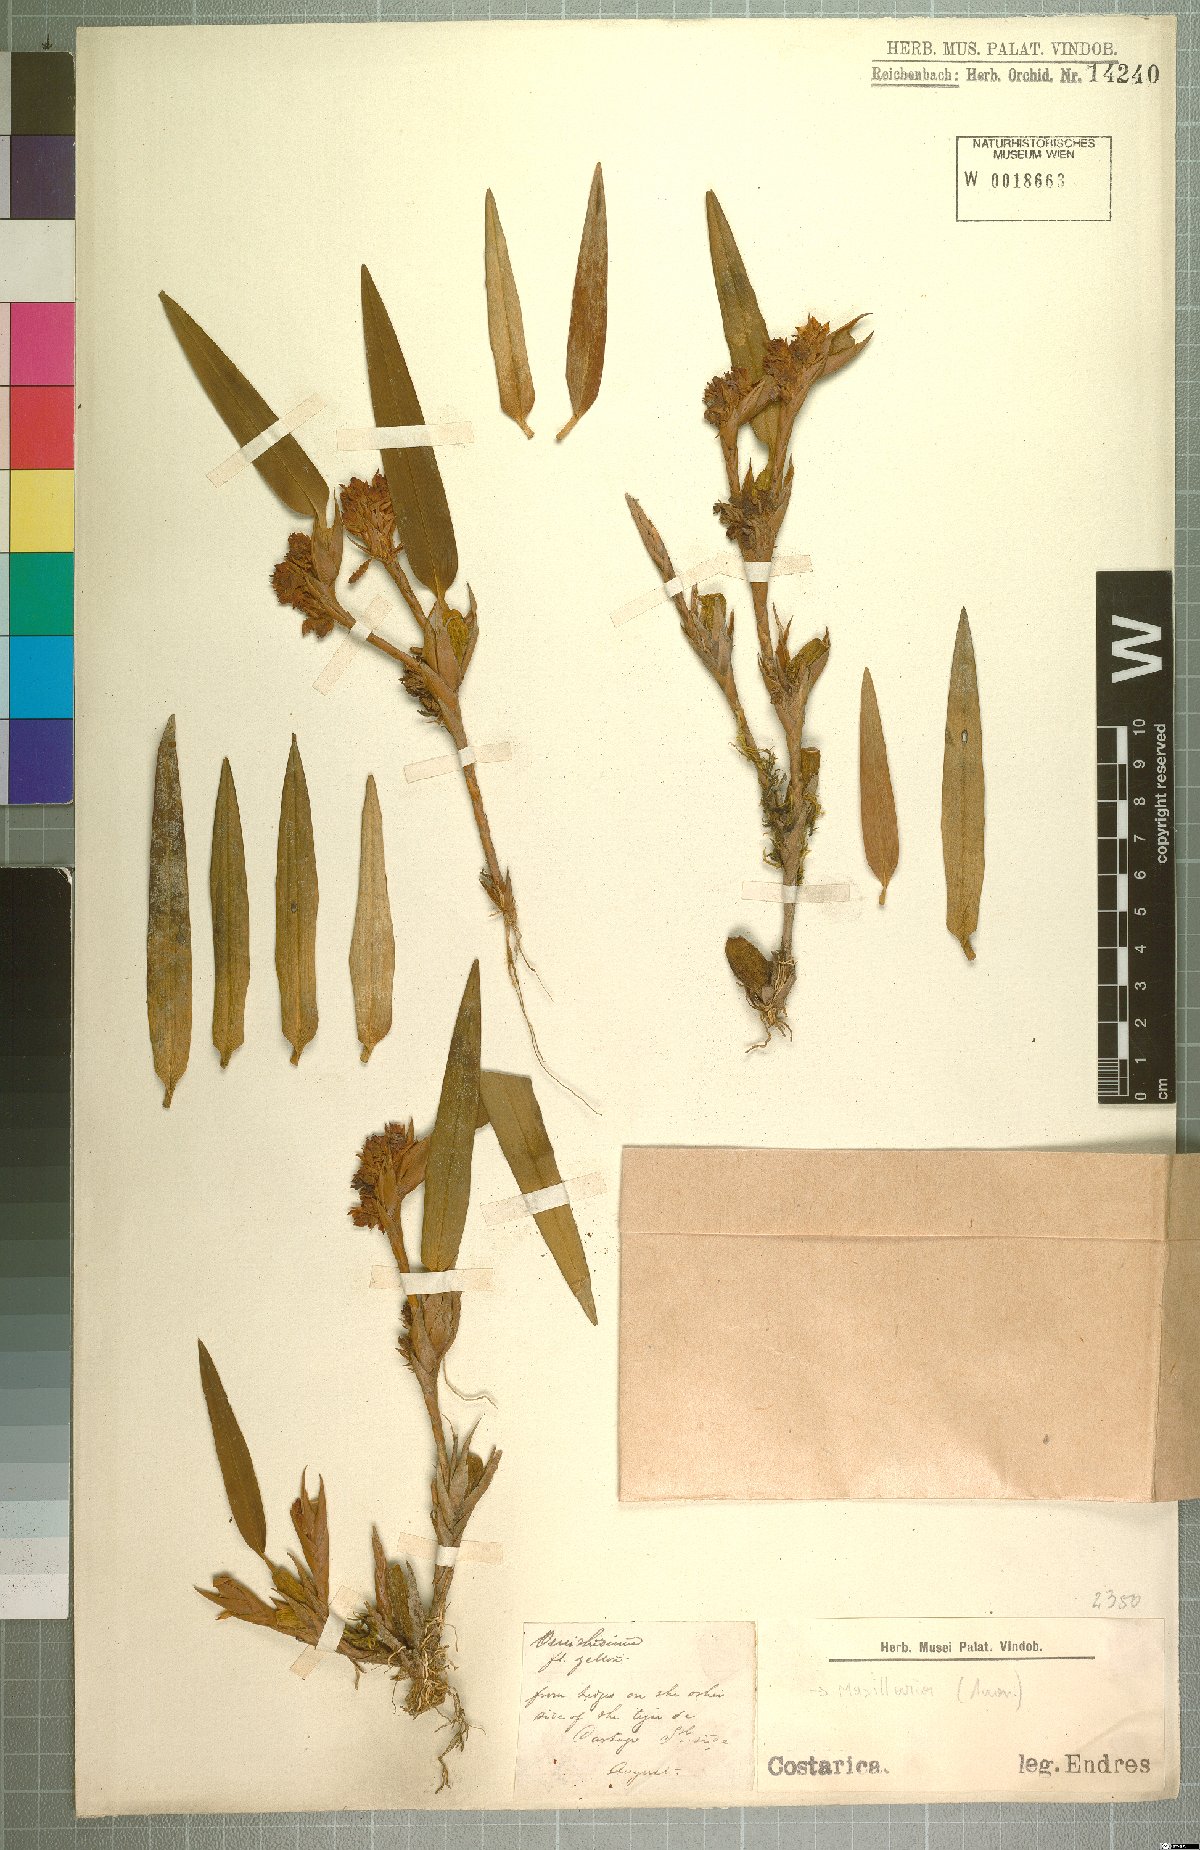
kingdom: Plantae
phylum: Tracheophyta
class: Liliopsida
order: Asparagales
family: Orchidaceae
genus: Maxillaria
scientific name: Maxillaria
